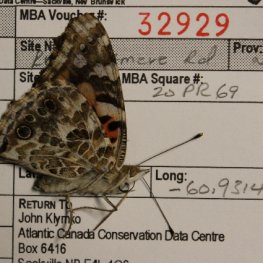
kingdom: Animalia
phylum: Arthropoda
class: Insecta
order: Lepidoptera
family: Nymphalidae
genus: Vanessa
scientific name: Vanessa cardui
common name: Painted Lady
